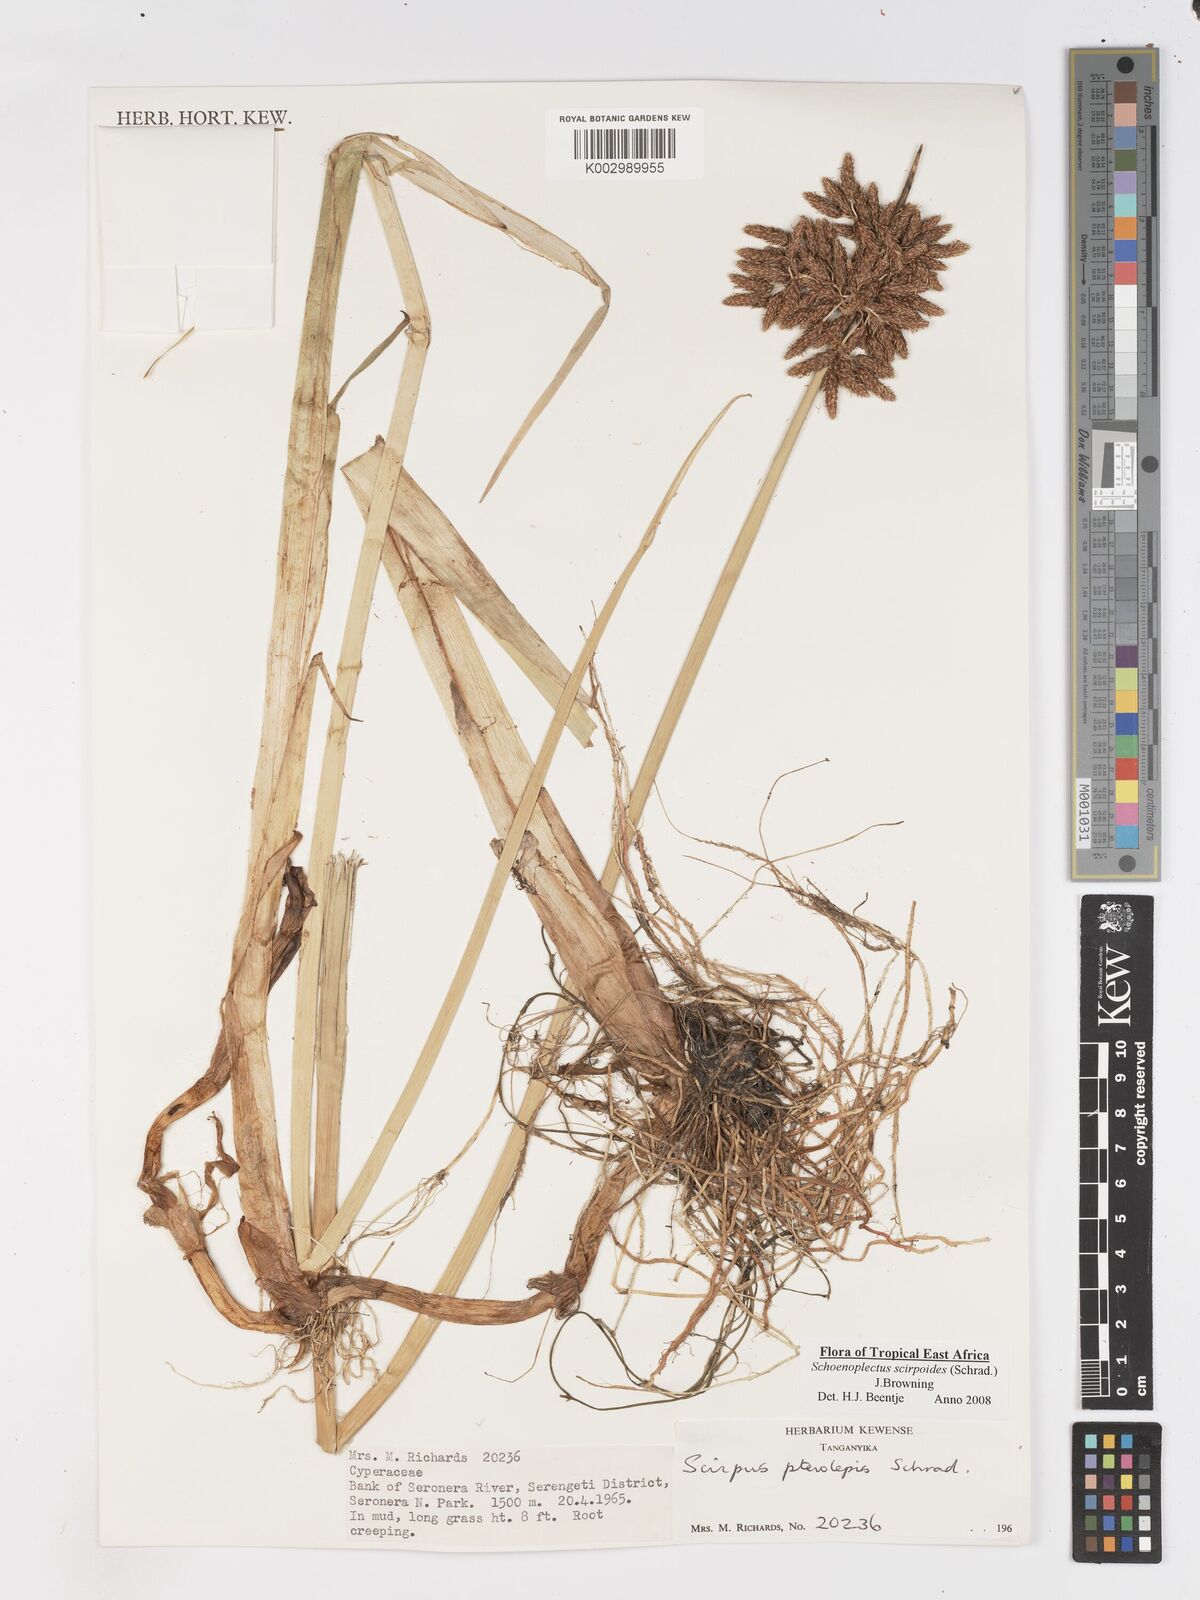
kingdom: Plantae
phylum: Tracheophyta
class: Liliopsida
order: Poales
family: Cyperaceae
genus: Schoenoplectus
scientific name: Schoenoplectus
